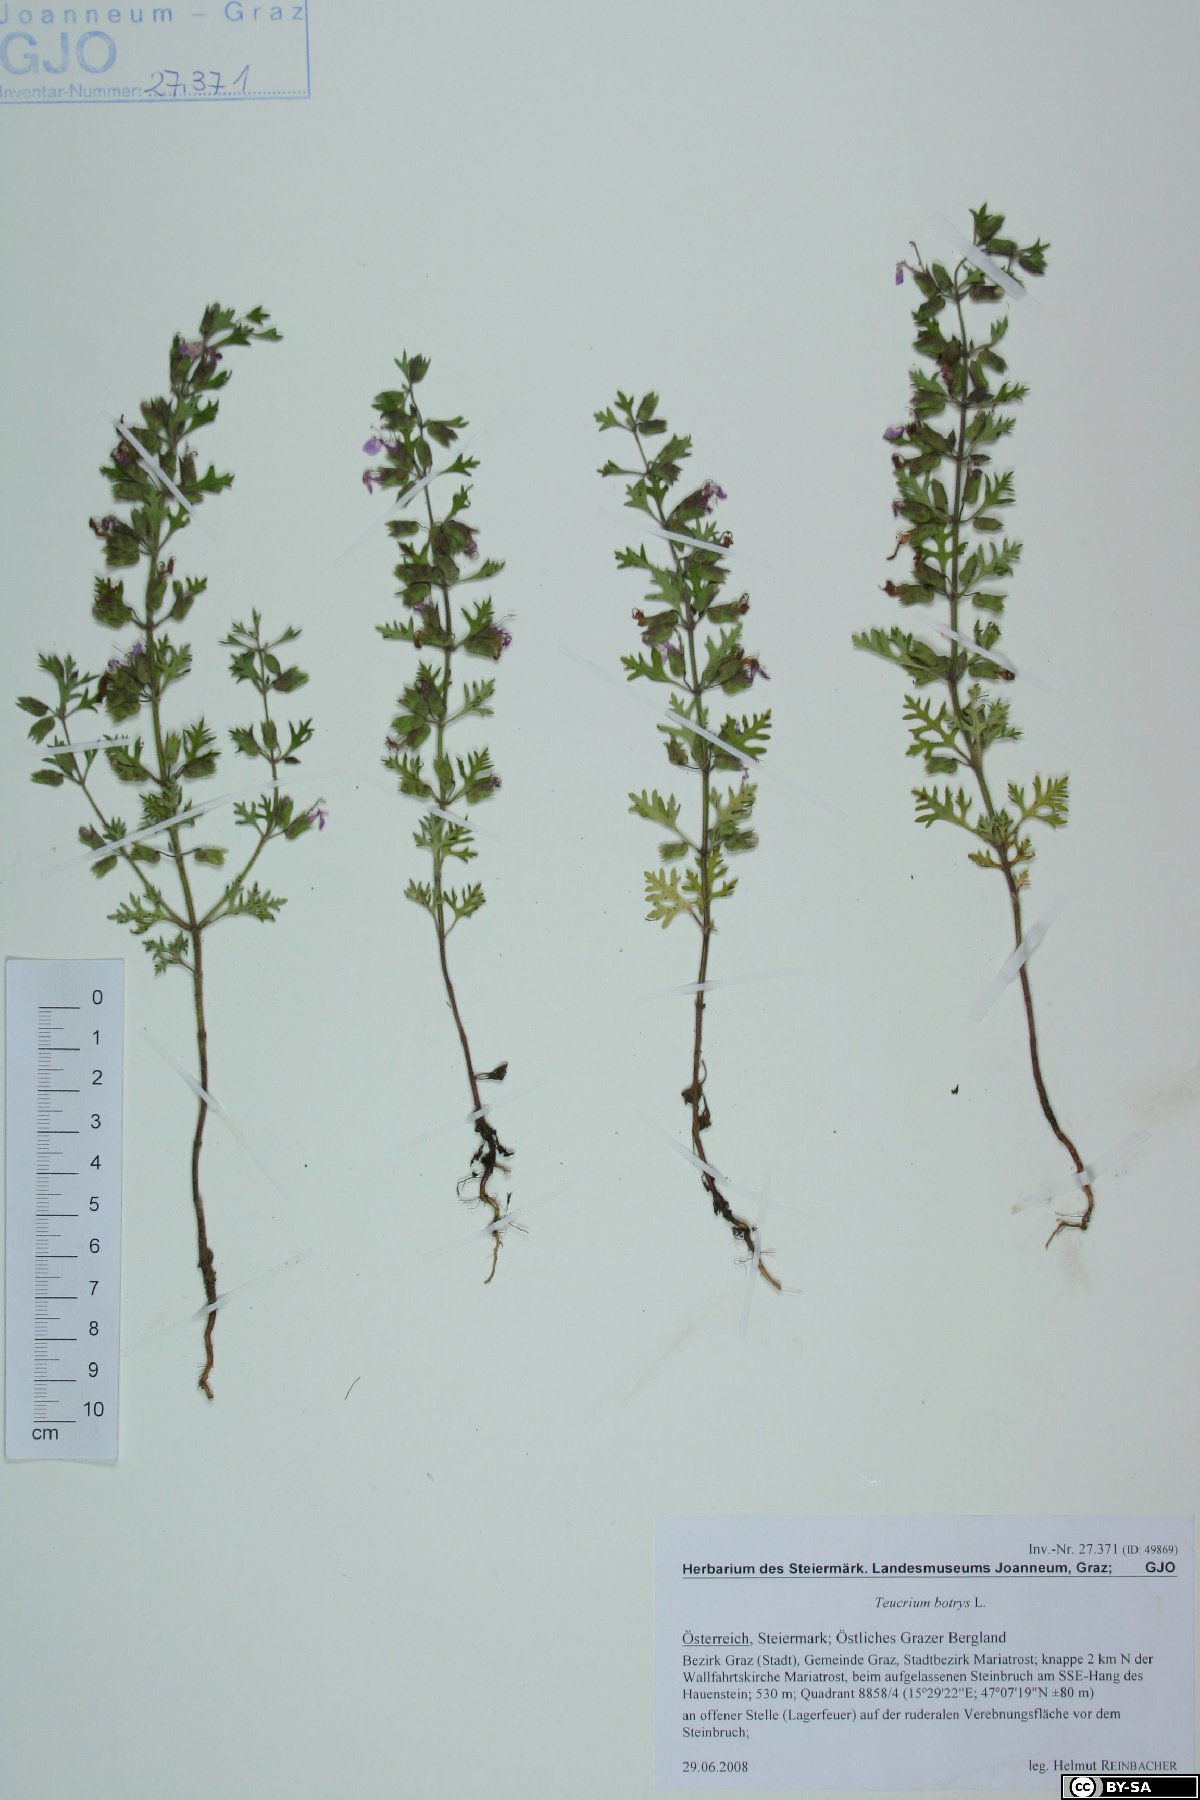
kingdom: Plantae
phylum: Tracheophyta
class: Magnoliopsida
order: Lamiales
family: Lamiaceae
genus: Teucrium
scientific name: Teucrium botrys
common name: Cut-leaved germander
